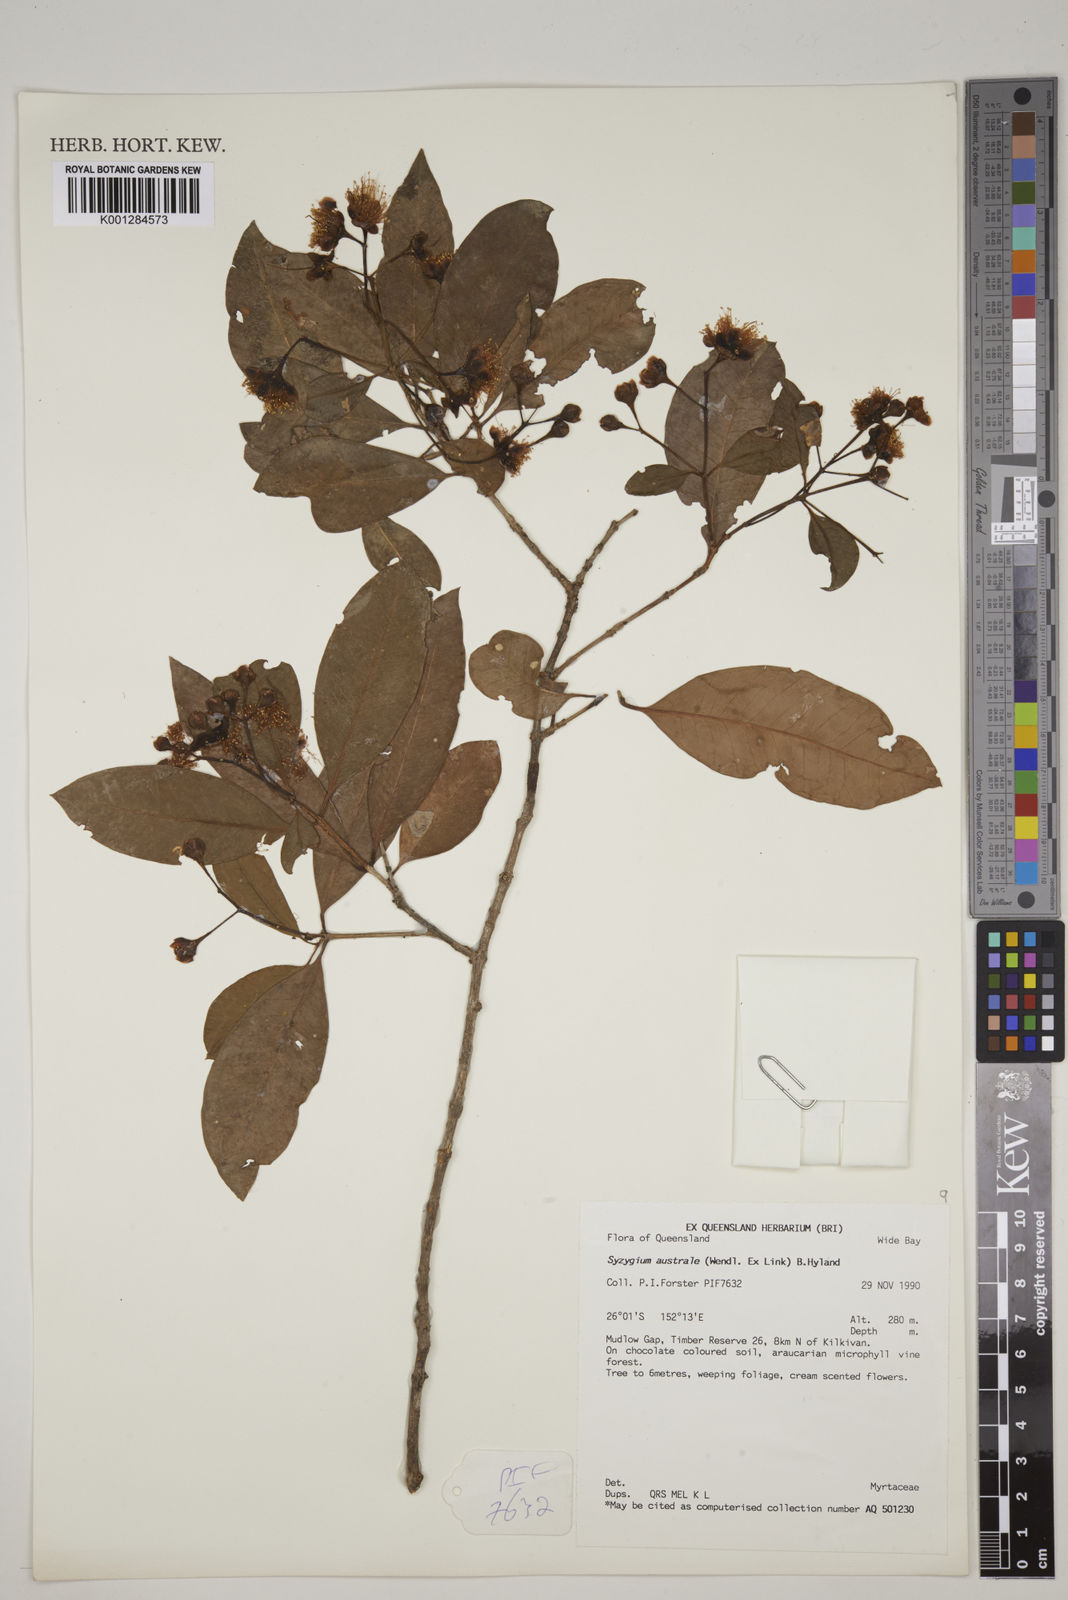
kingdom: Plantae
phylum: Tracheophyta
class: Magnoliopsida
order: Myrtales
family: Myrtaceae
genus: Syzygium
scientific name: Syzygium australe
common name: Australian brush-cherry
